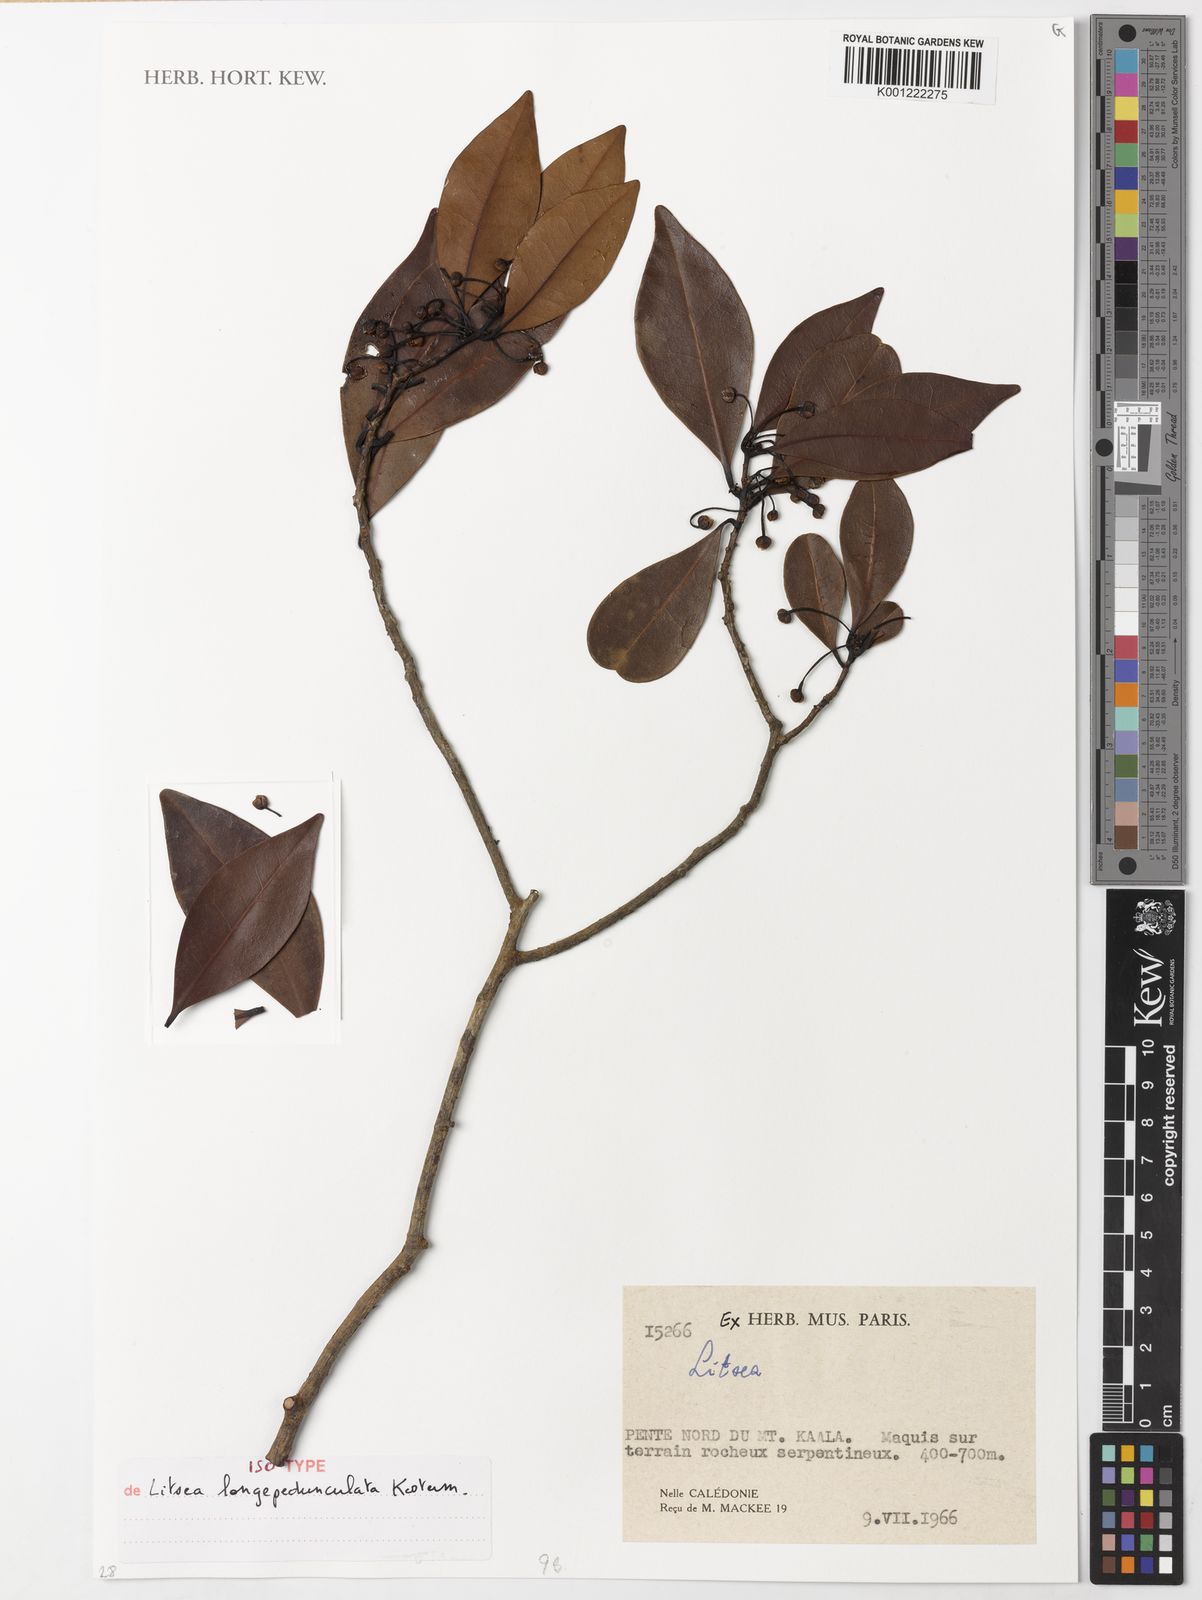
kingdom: Plantae
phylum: Tracheophyta
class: Magnoliopsida
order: Laurales
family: Lauraceae
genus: Litsea
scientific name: Litsea longepedunculata
